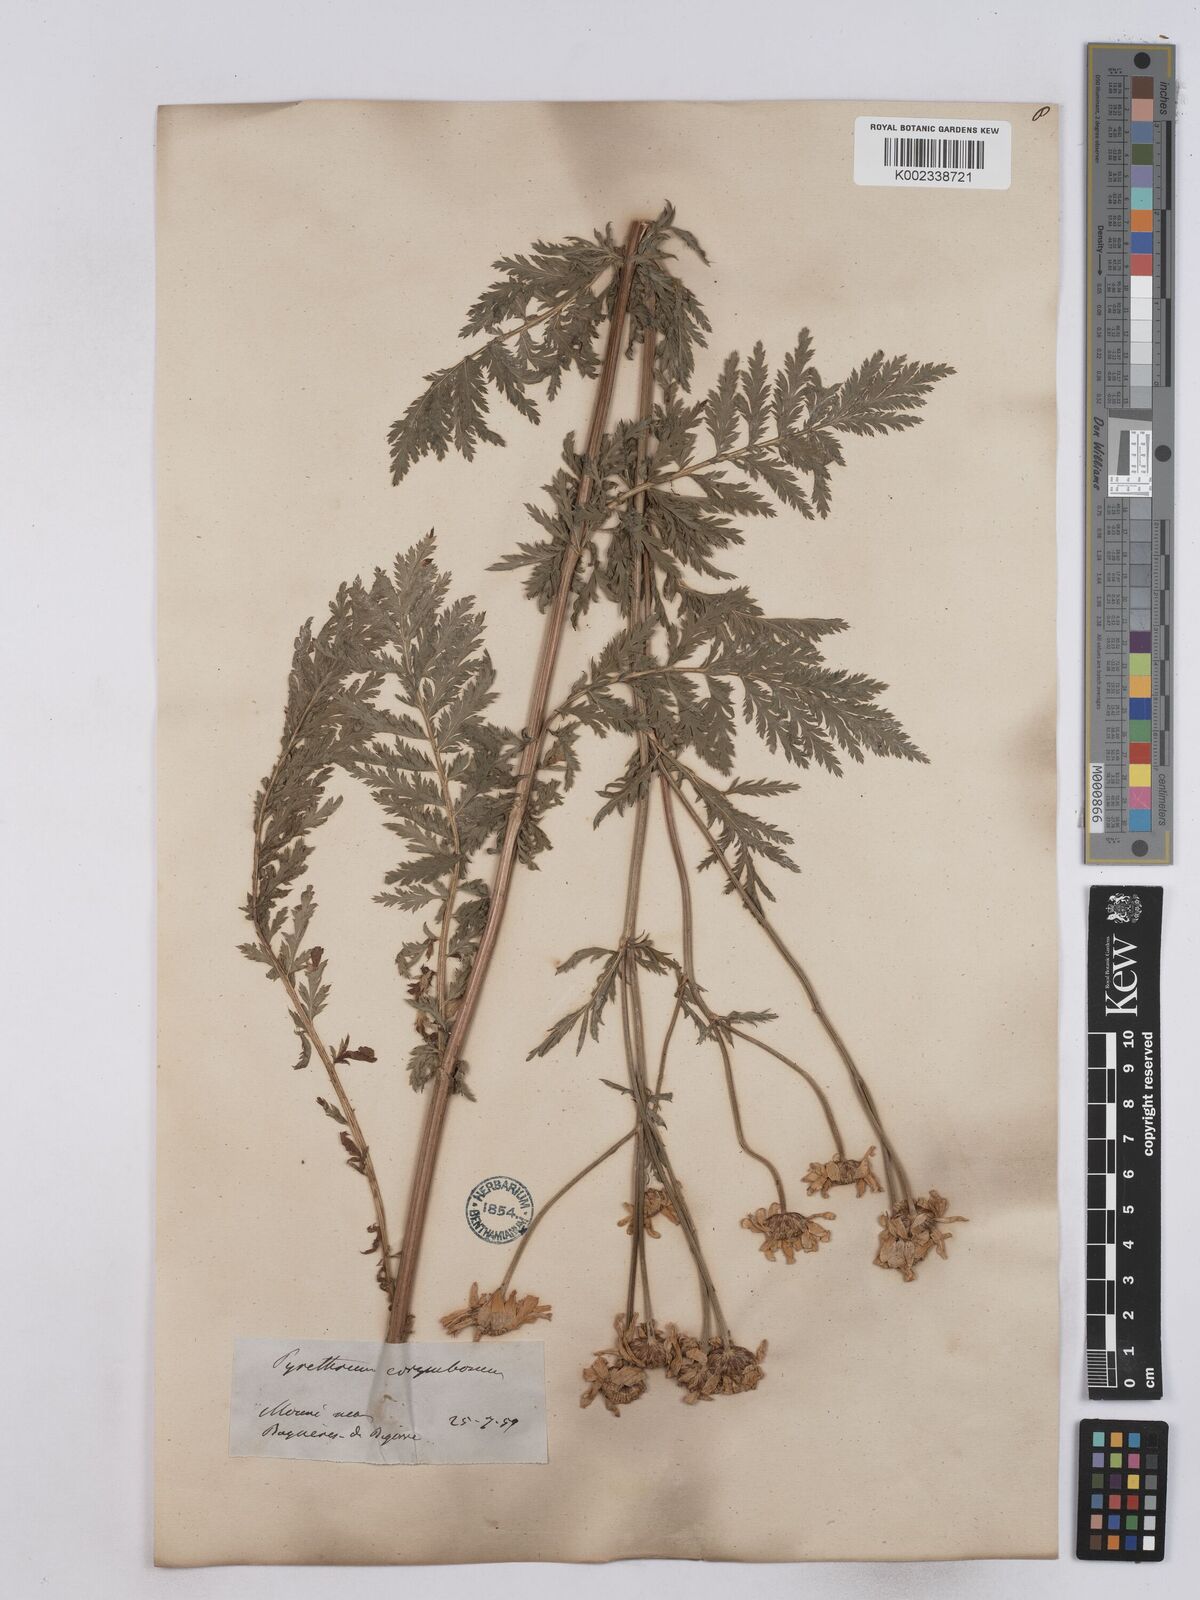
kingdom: Plantae
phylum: Tracheophyta
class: Magnoliopsida
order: Asterales
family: Asteraceae
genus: Tanacetum
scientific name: Tanacetum corymbosum
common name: Scentless feverfew
